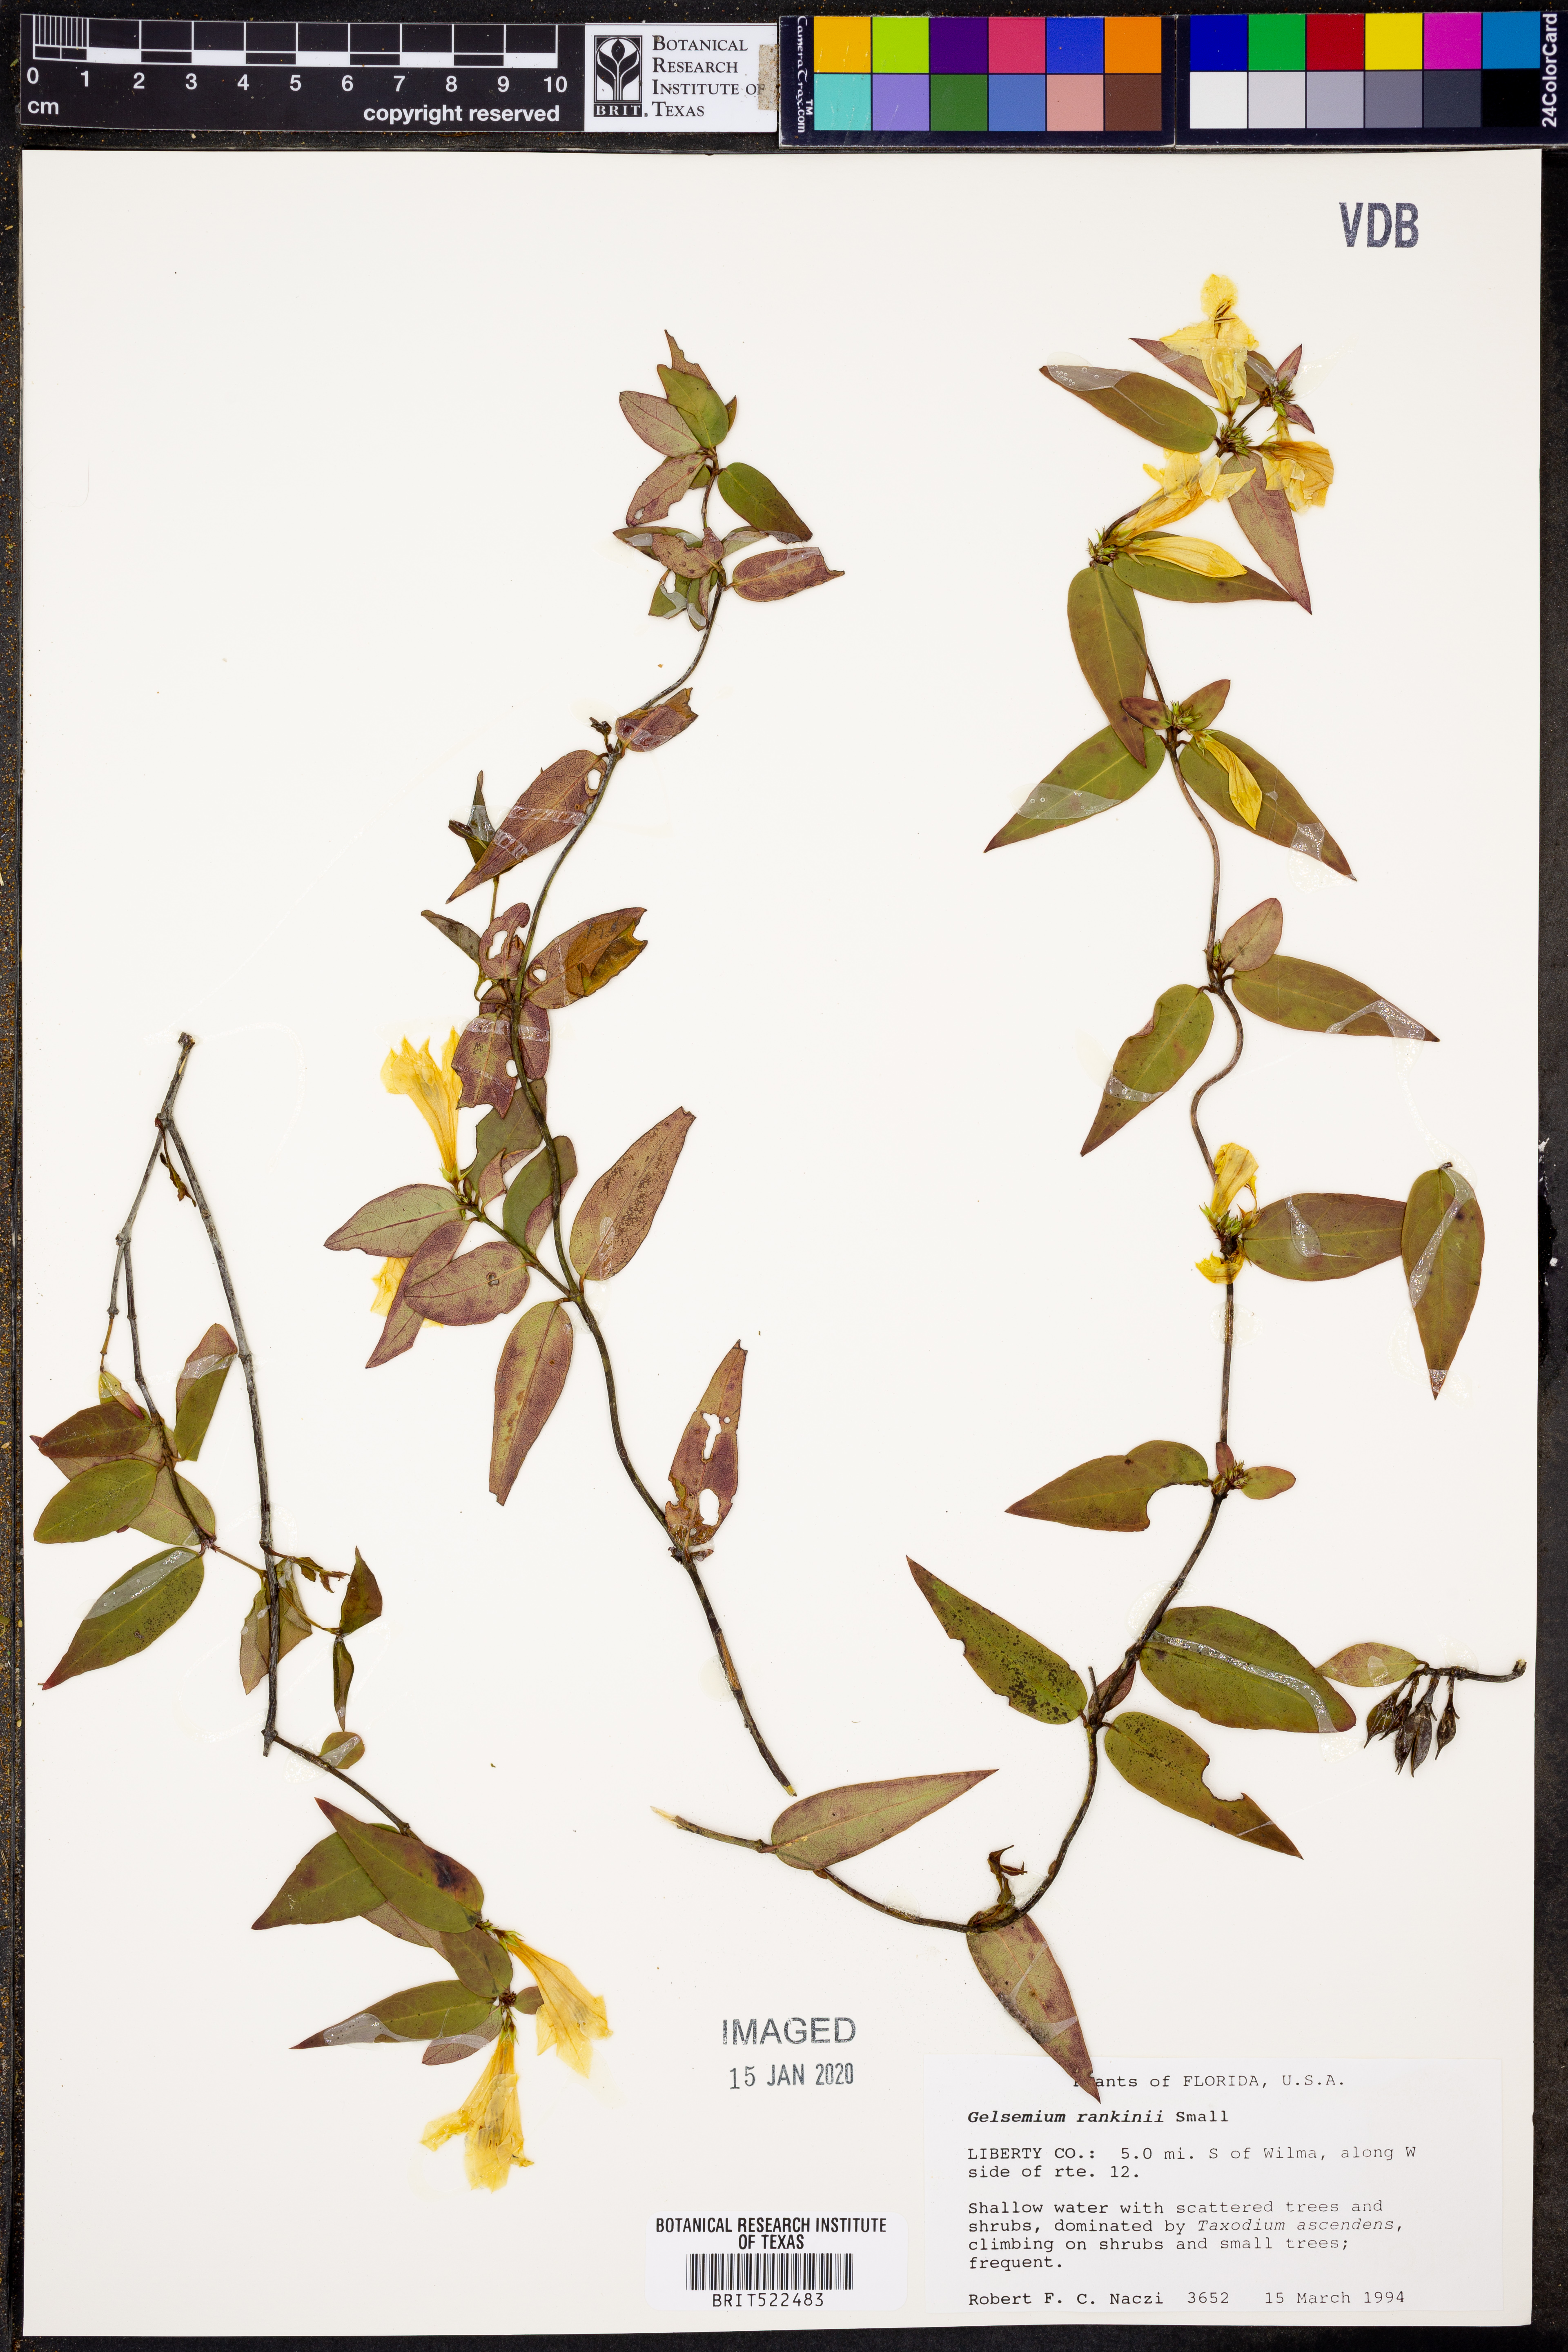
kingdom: Plantae
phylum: Tracheophyta
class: Magnoliopsida
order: Gentianales
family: Gelsemiaceae
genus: Gelsemium
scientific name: Gelsemium rankinii
